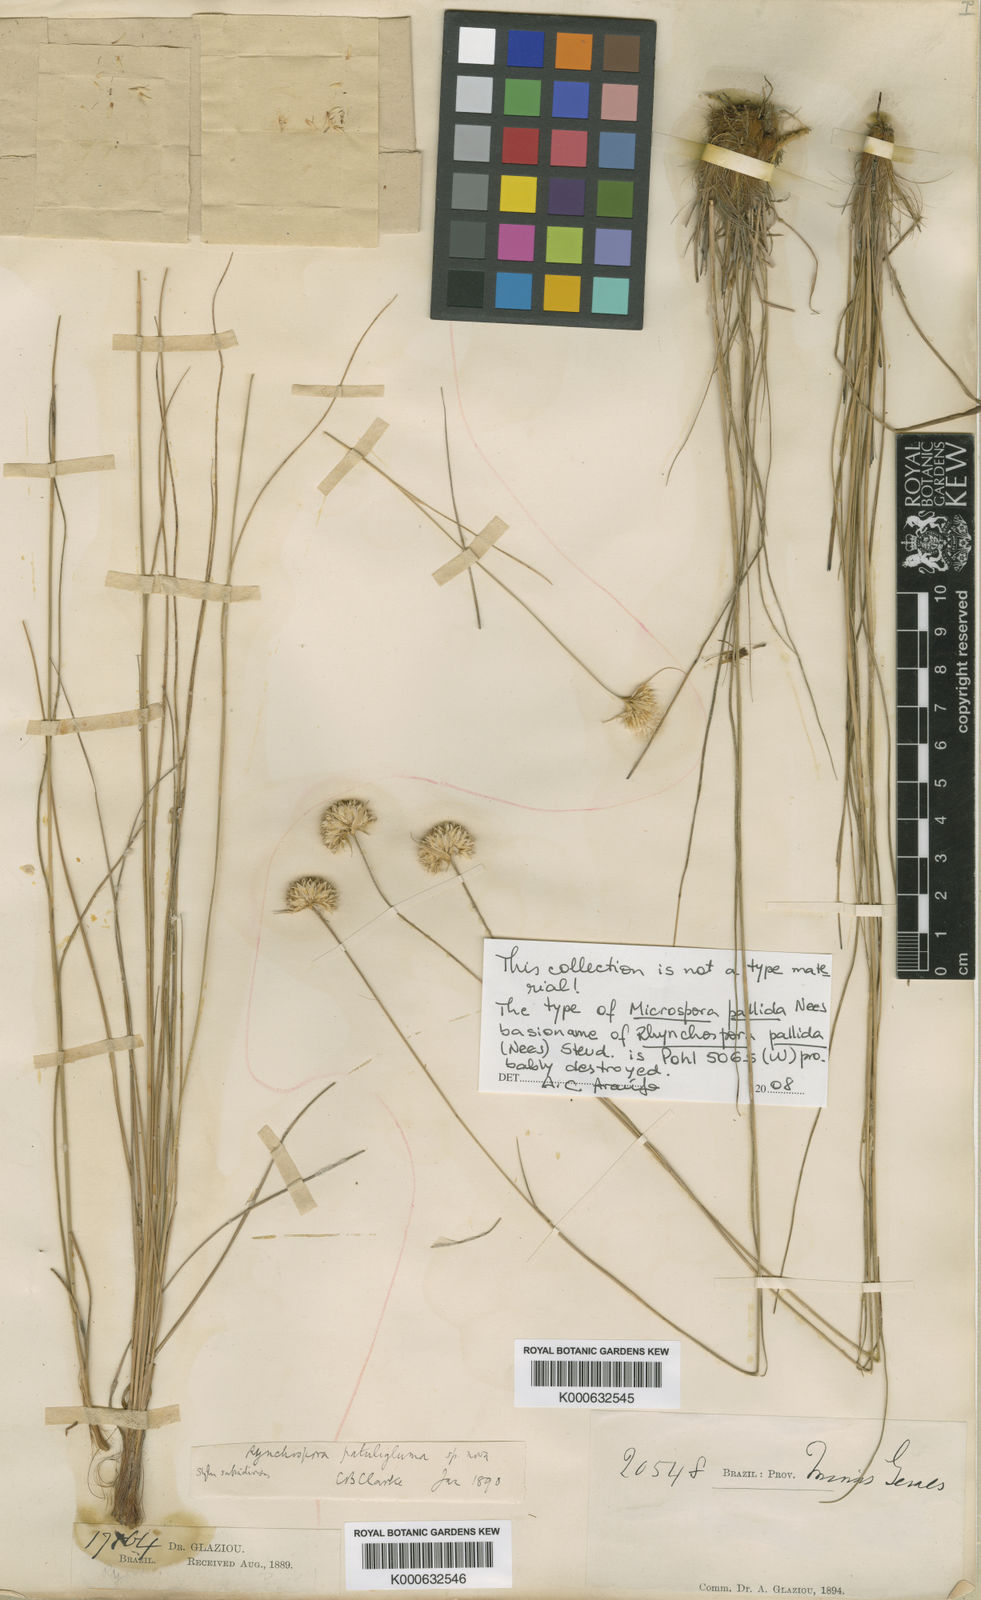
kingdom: Plantae
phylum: Tracheophyta
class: Liliopsida
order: Poales
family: Cyperaceae
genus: Rhynchospora
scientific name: Rhynchospora
